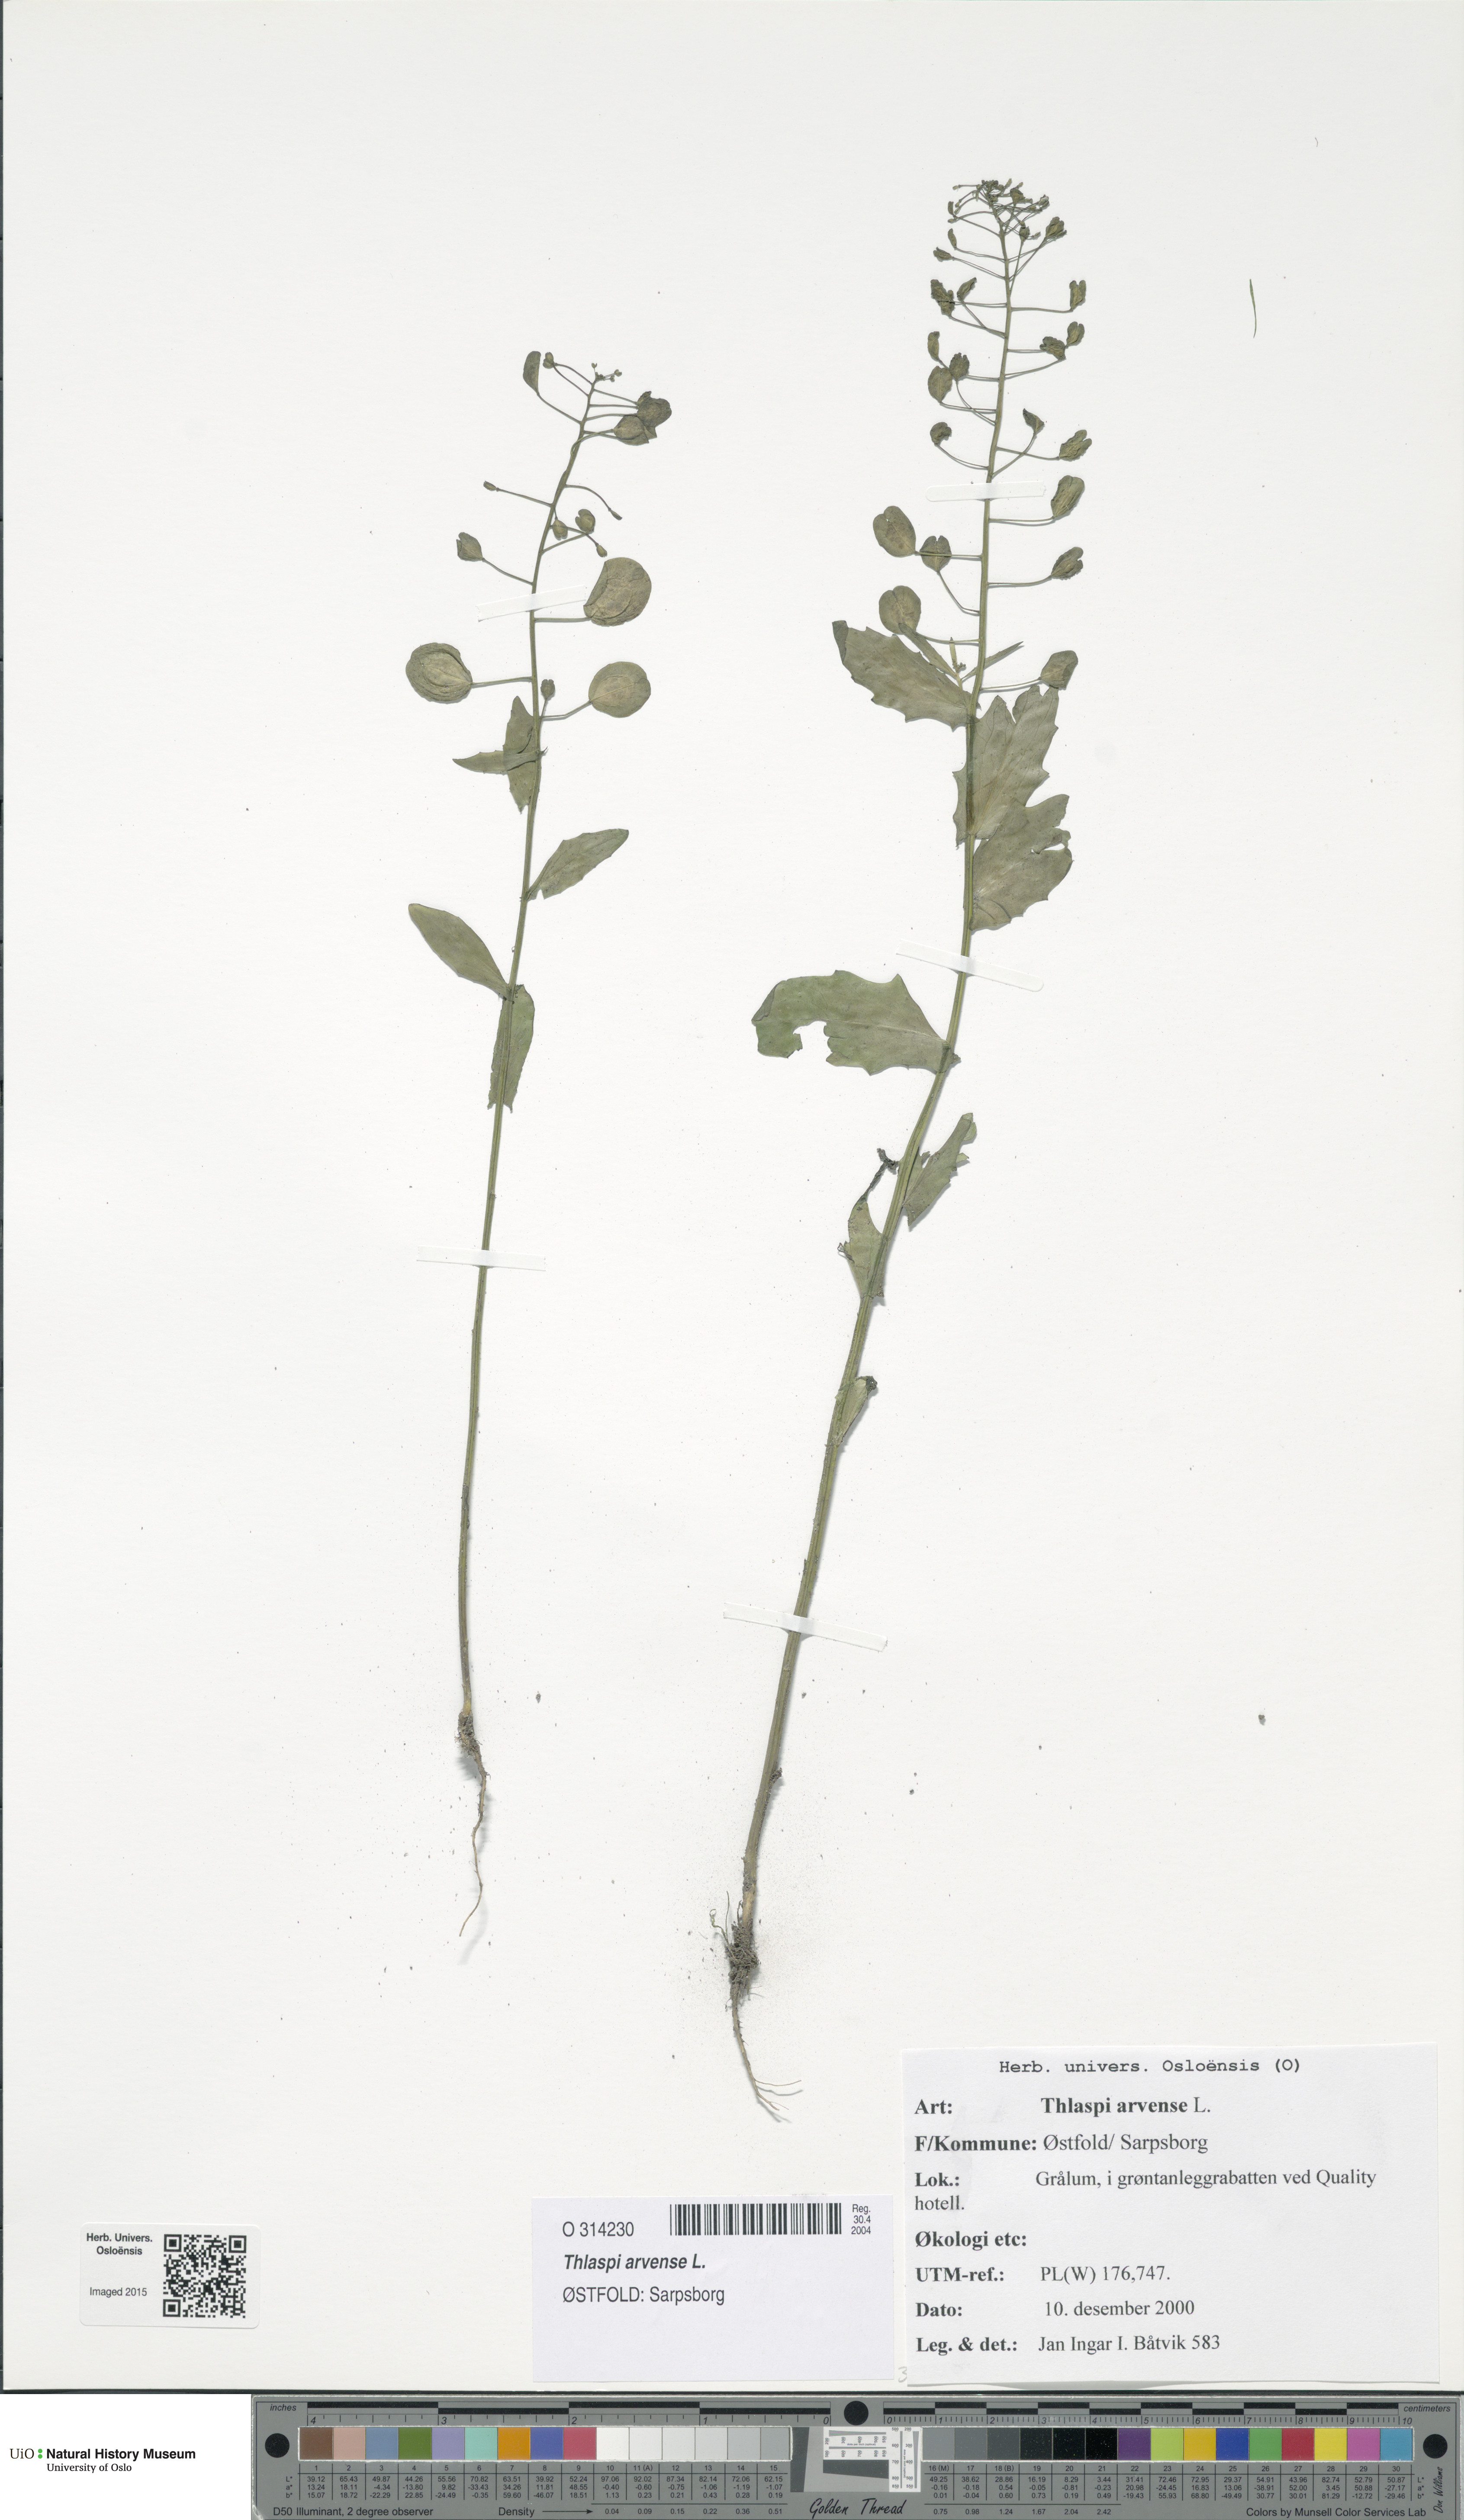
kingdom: Plantae
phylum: Tracheophyta
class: Magnoliopsida
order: Brassicales
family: Brassicaceae
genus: Thlaspi
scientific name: Thlaspi arvense
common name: Field pennycress
